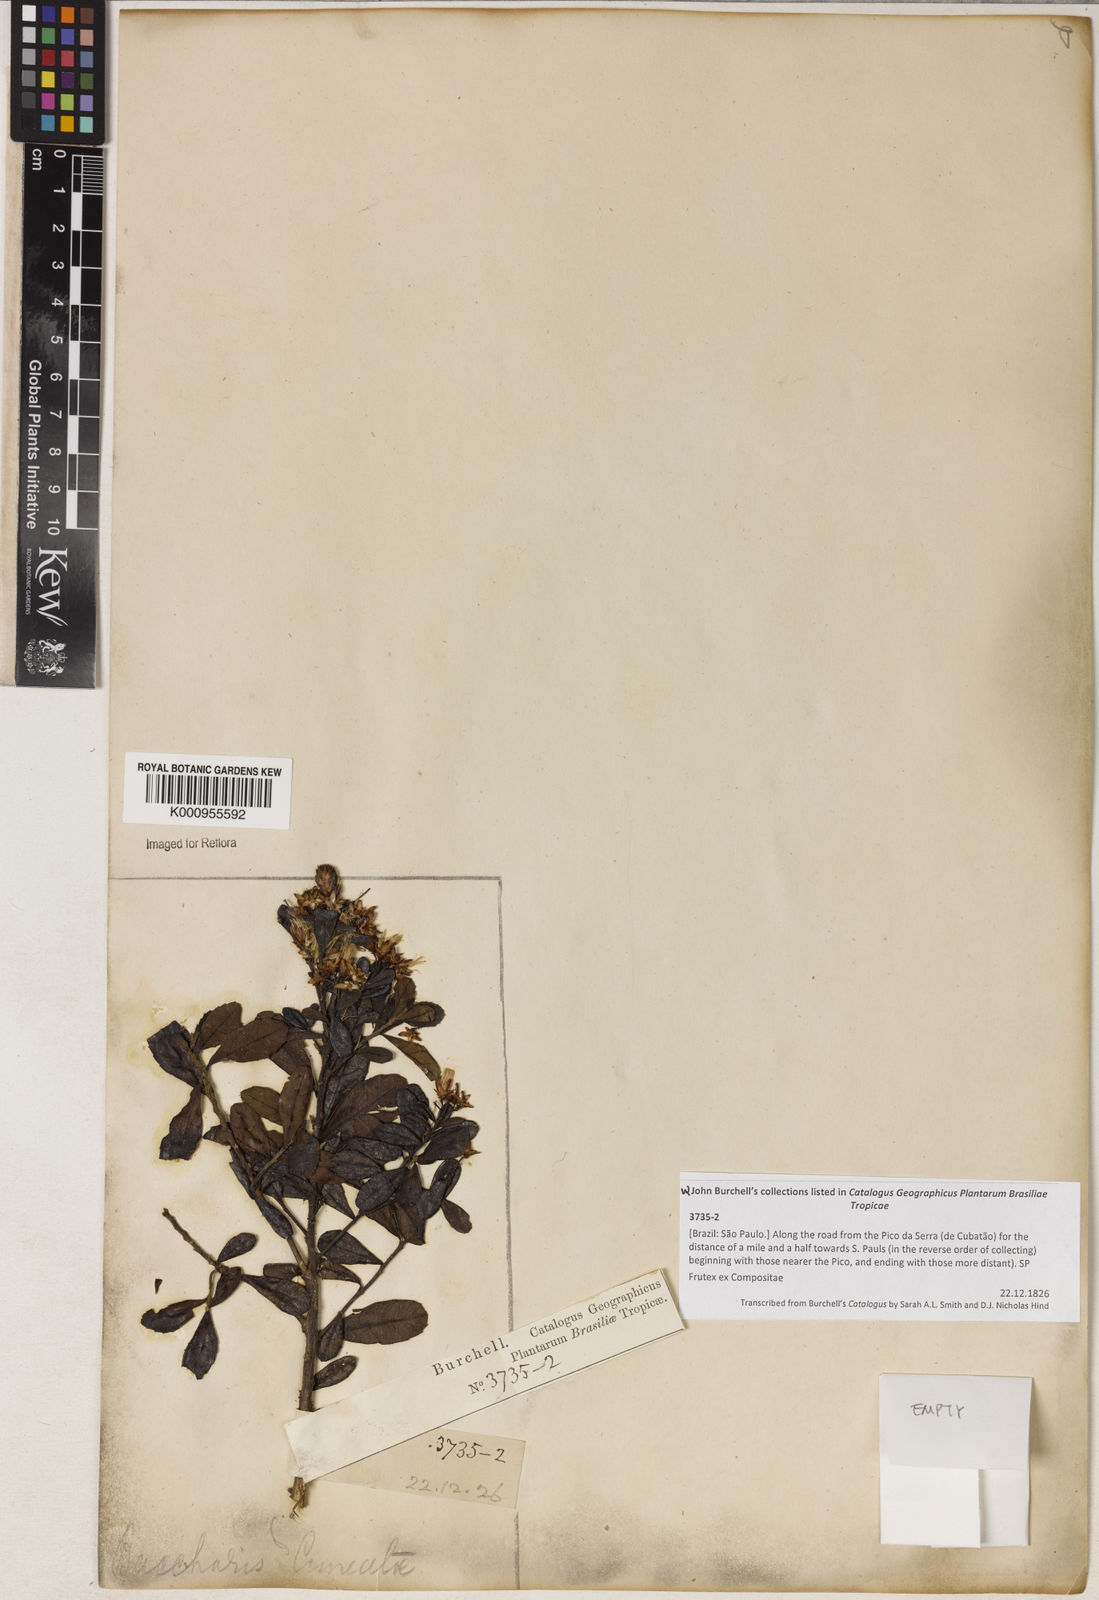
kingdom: Plantae
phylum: Tracheophyta
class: Magnoliopsida
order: Asterales
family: Asteraceae
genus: Baccharis
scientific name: Baccharis
